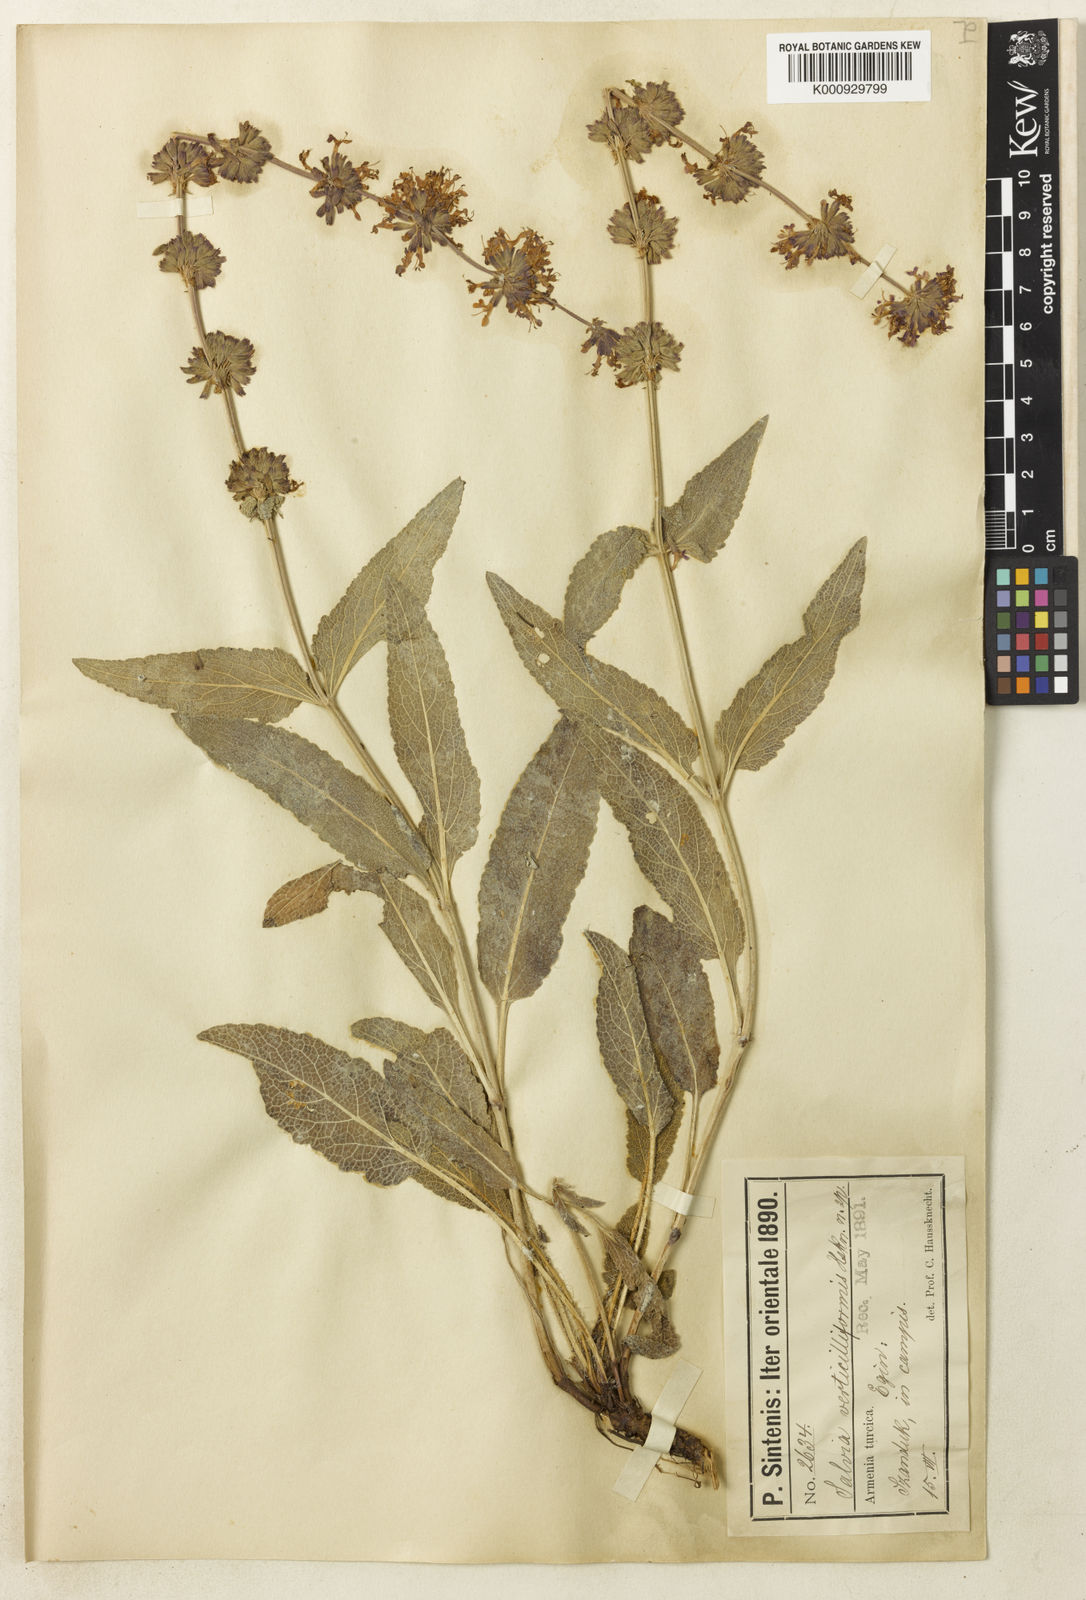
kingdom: Plantae
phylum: Tracheophyta
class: Magnoliopsida
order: Lamiales
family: Lamiaceae
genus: Salvia
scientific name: Salvia russellii
